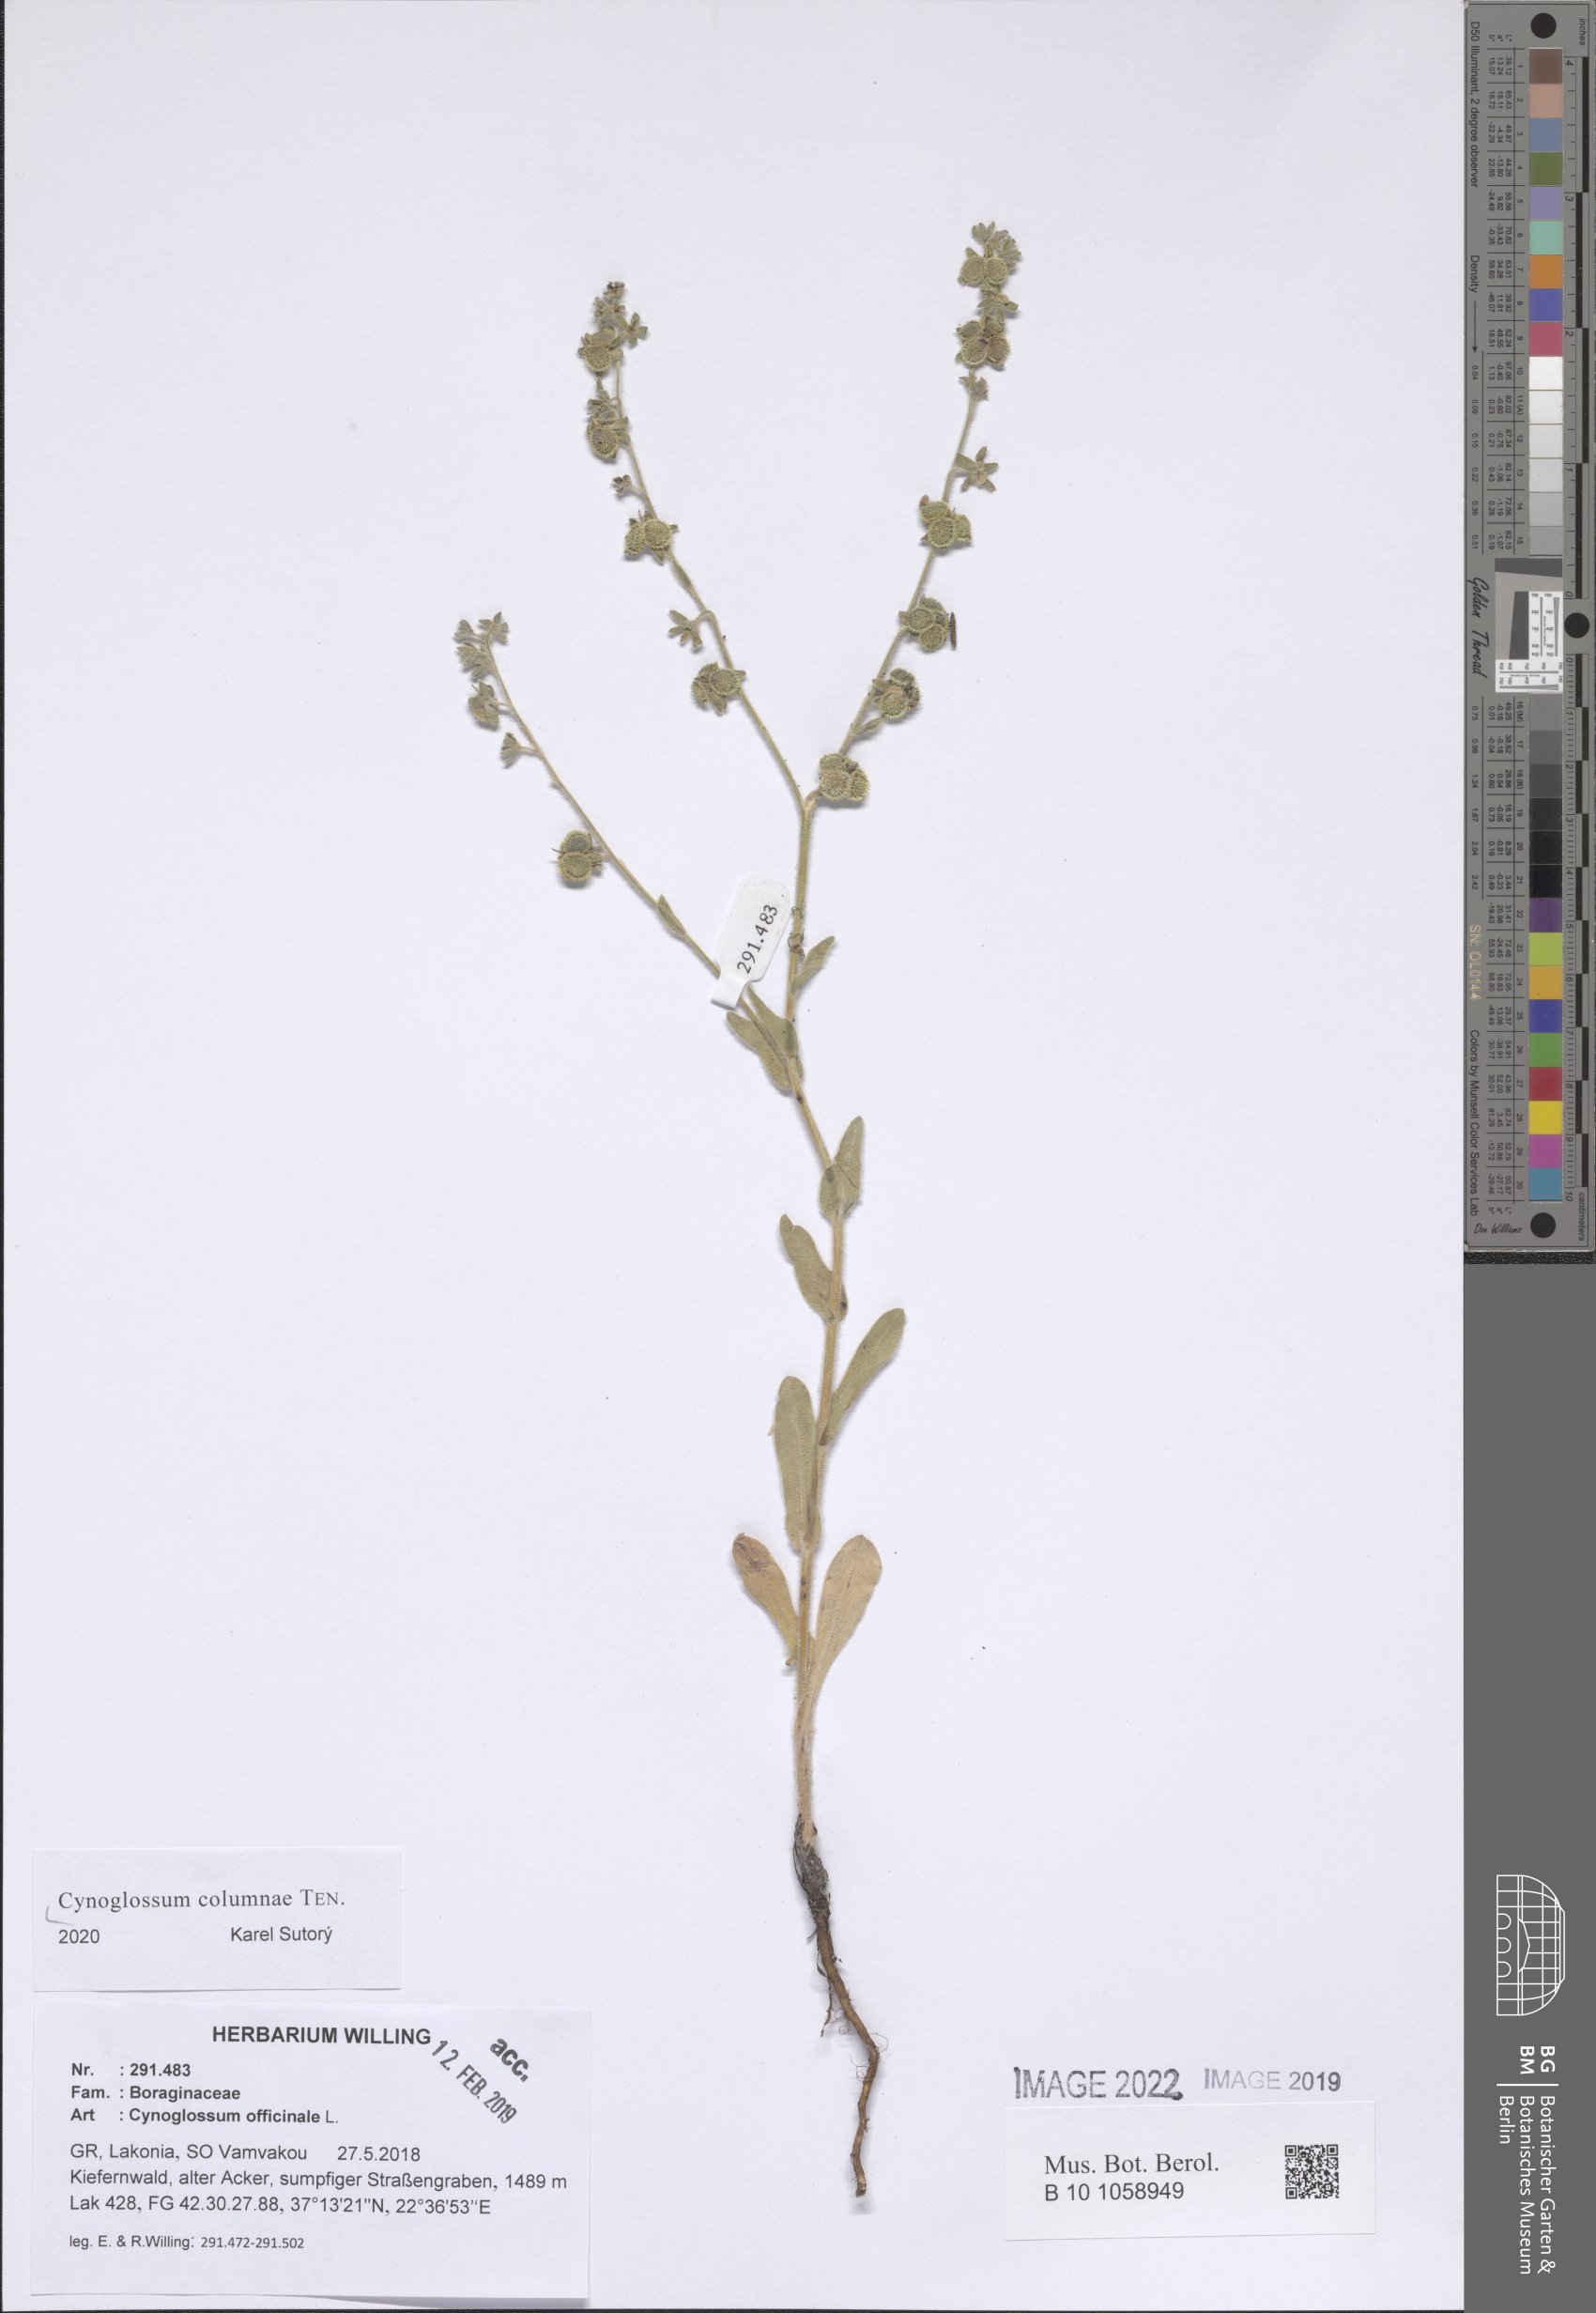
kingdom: Plantae
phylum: Tracheophyta
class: Magnoliopsida
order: Boraginales
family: Boraginaceae
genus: Rindera
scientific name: Rindera columnae
